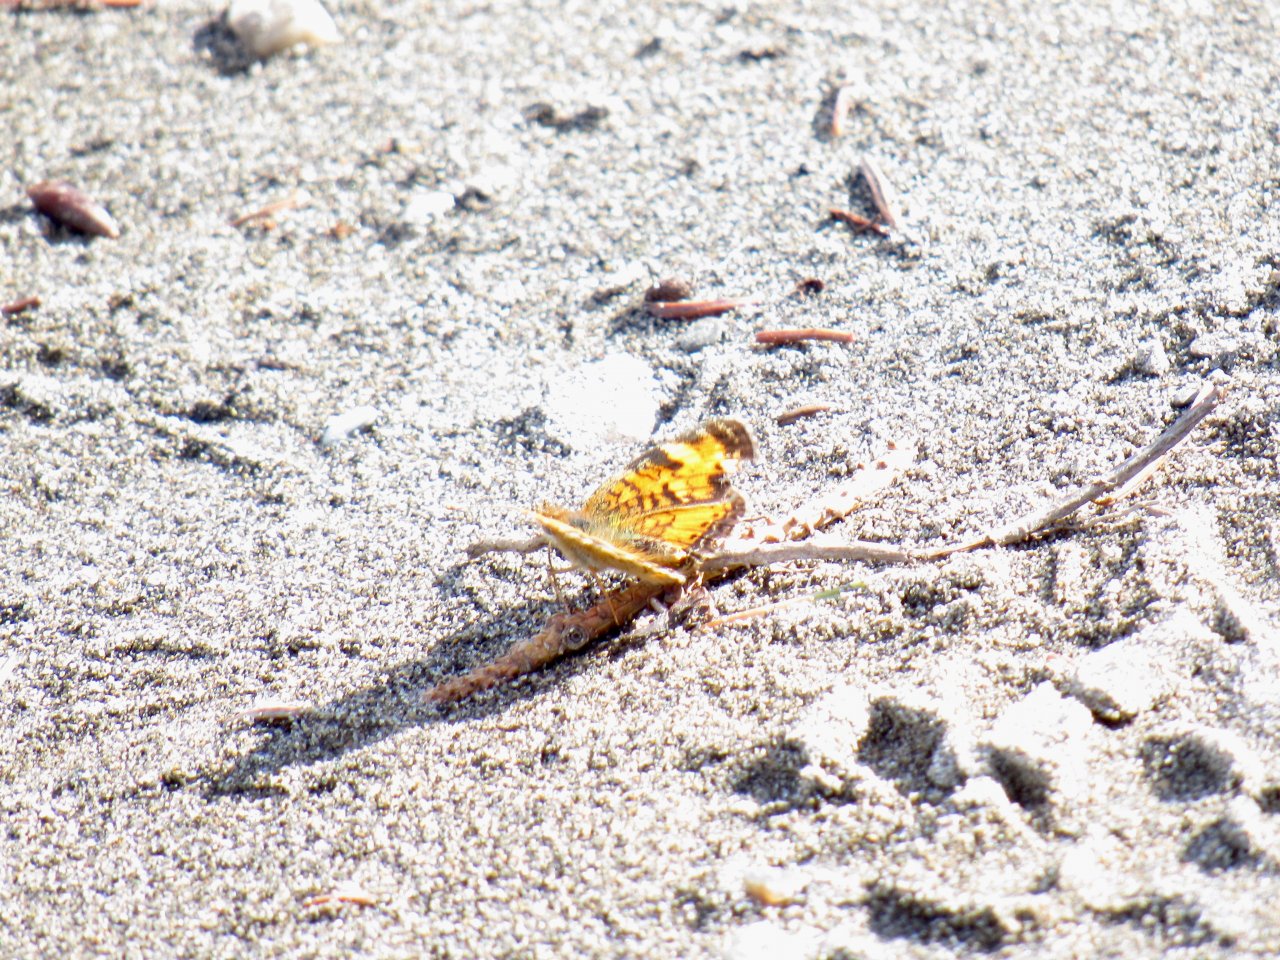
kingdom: Animalia
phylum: Arthropoda
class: Insecta
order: Lepidoptera
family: Nymphalidae
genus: Phyciodes
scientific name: Phyciodes tharos
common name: Northern Crescent
